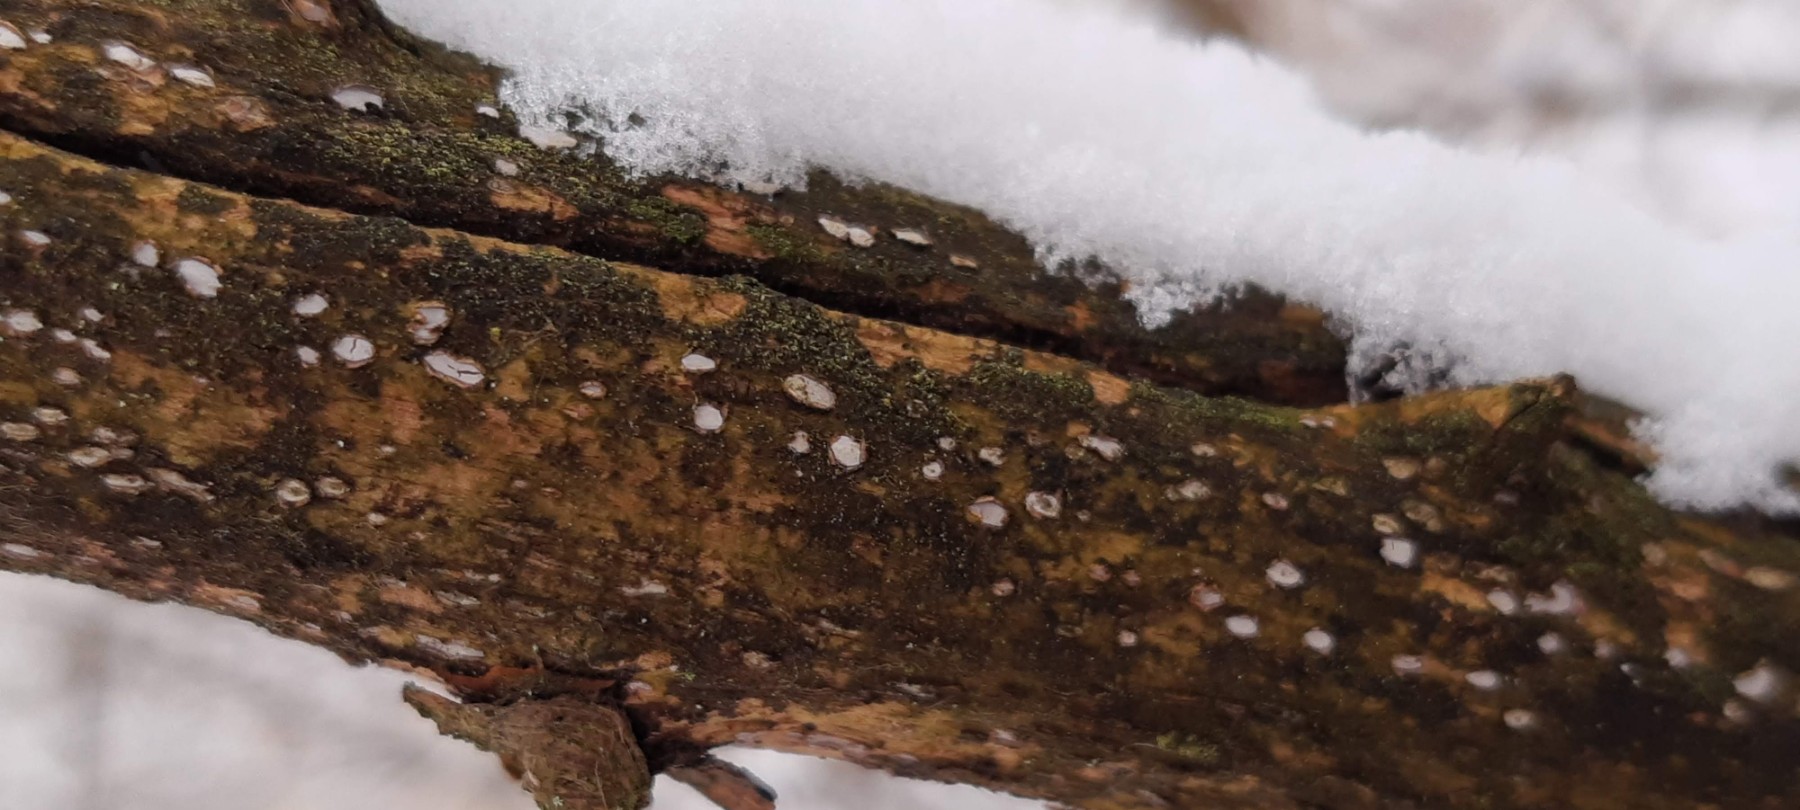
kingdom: Fungi
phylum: Ascomycota
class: Leotiomycetes
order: Chaetomellales
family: Marthamycetaceae
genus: Propolis
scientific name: Propolis farinosa
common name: almindelig vedsprængerskive
